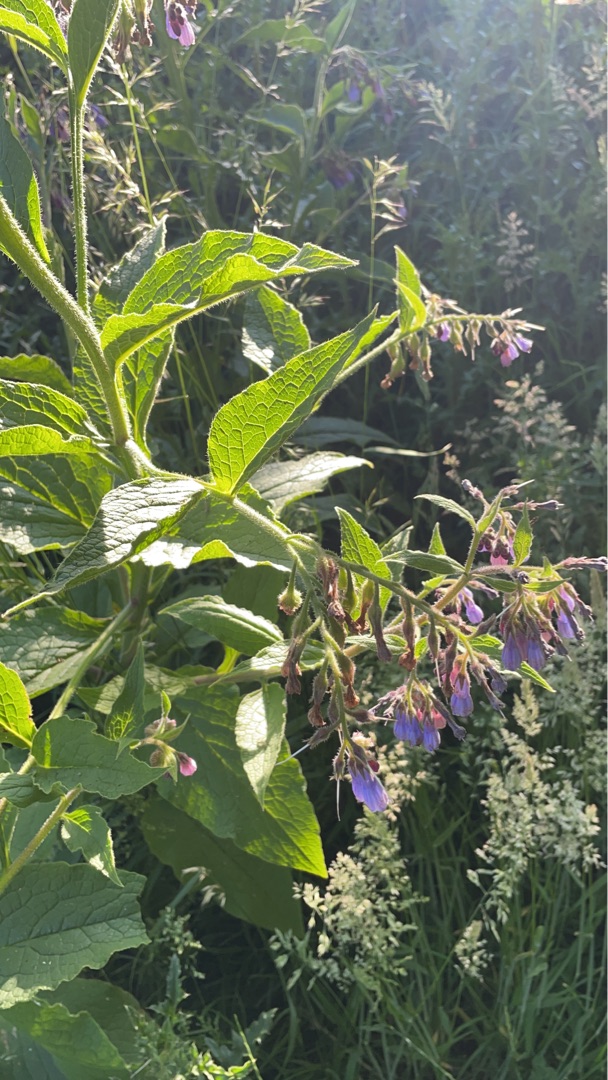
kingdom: Plantae
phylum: Tracheophyta
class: Magnoliopsida
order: Boraginales
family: Boraginaceae
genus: Symphytum
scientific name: Symphytum uplandicum
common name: Foder-kulsukker
